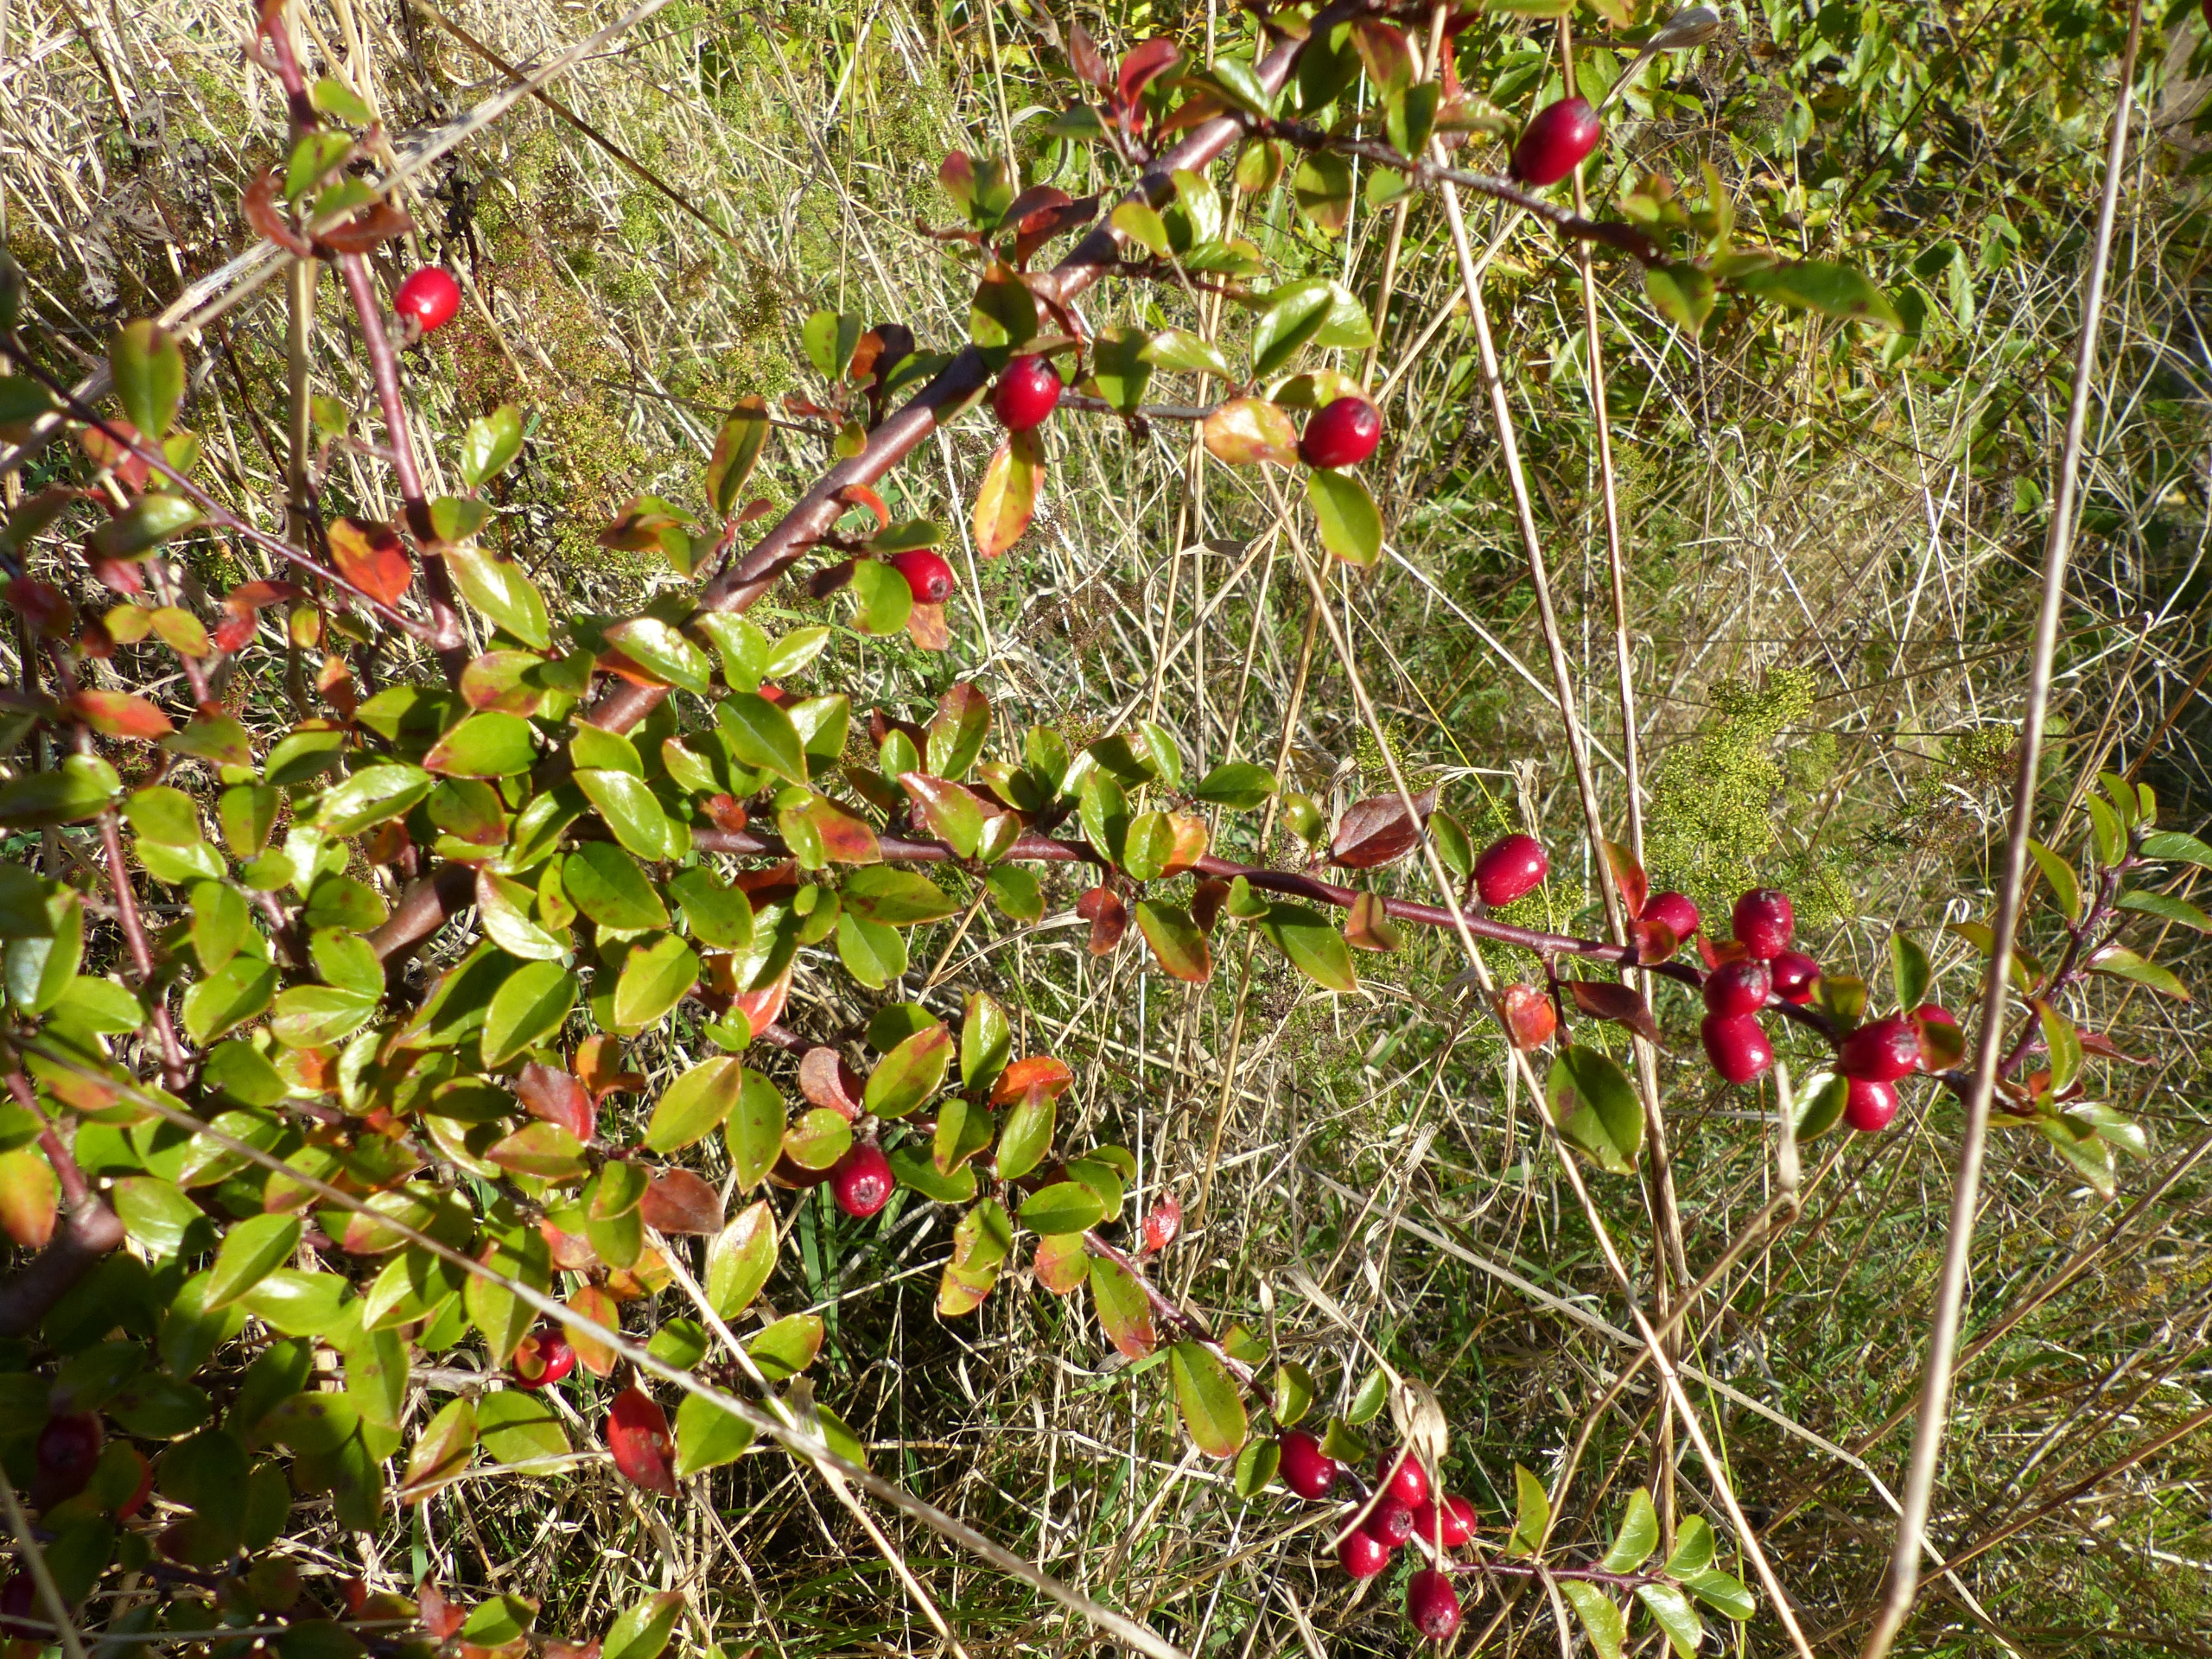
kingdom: Plantae
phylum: Tracheophyta
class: Magnoliopsida
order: Rosales
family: Rosaceae
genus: Cotoneaster
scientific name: Cotoneaster divaricatus
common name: Vifte-dværgmispel
